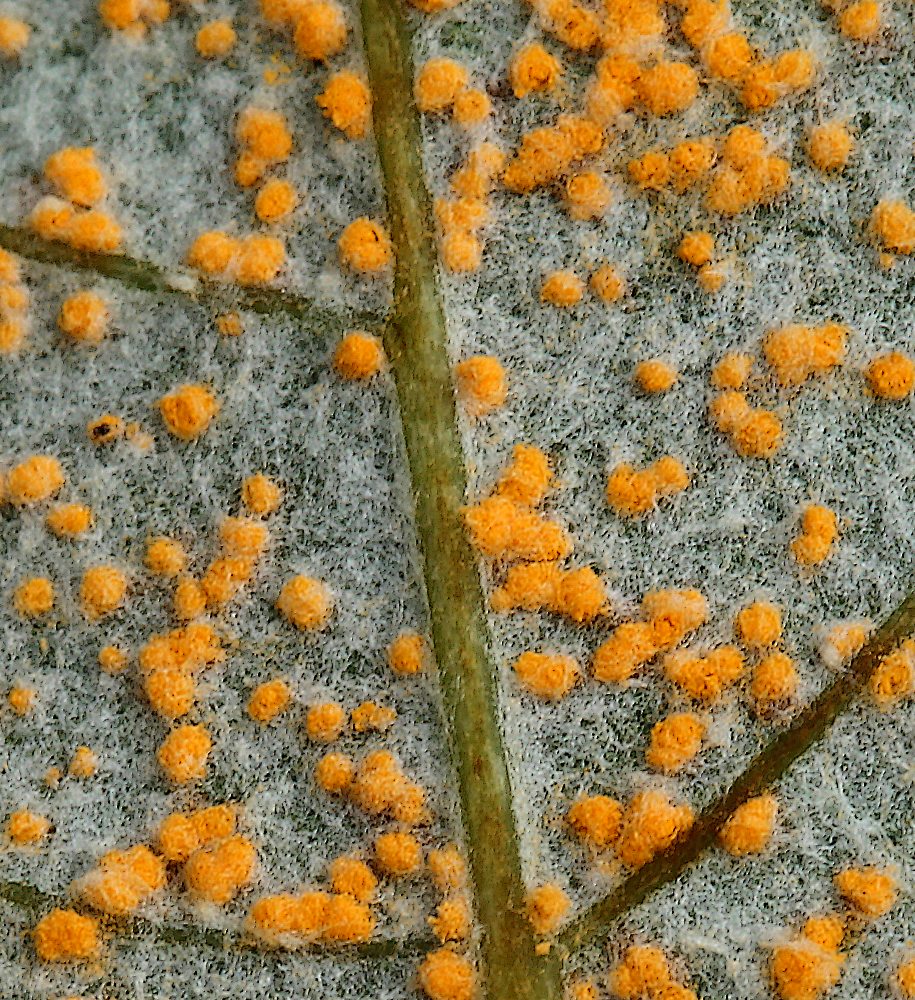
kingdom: Fungi
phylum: Basidiomycota
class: Pucciniomycetes
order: Pucciniales
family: Melampsoraceae
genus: Melampsora
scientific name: Melampsora
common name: skorperust
